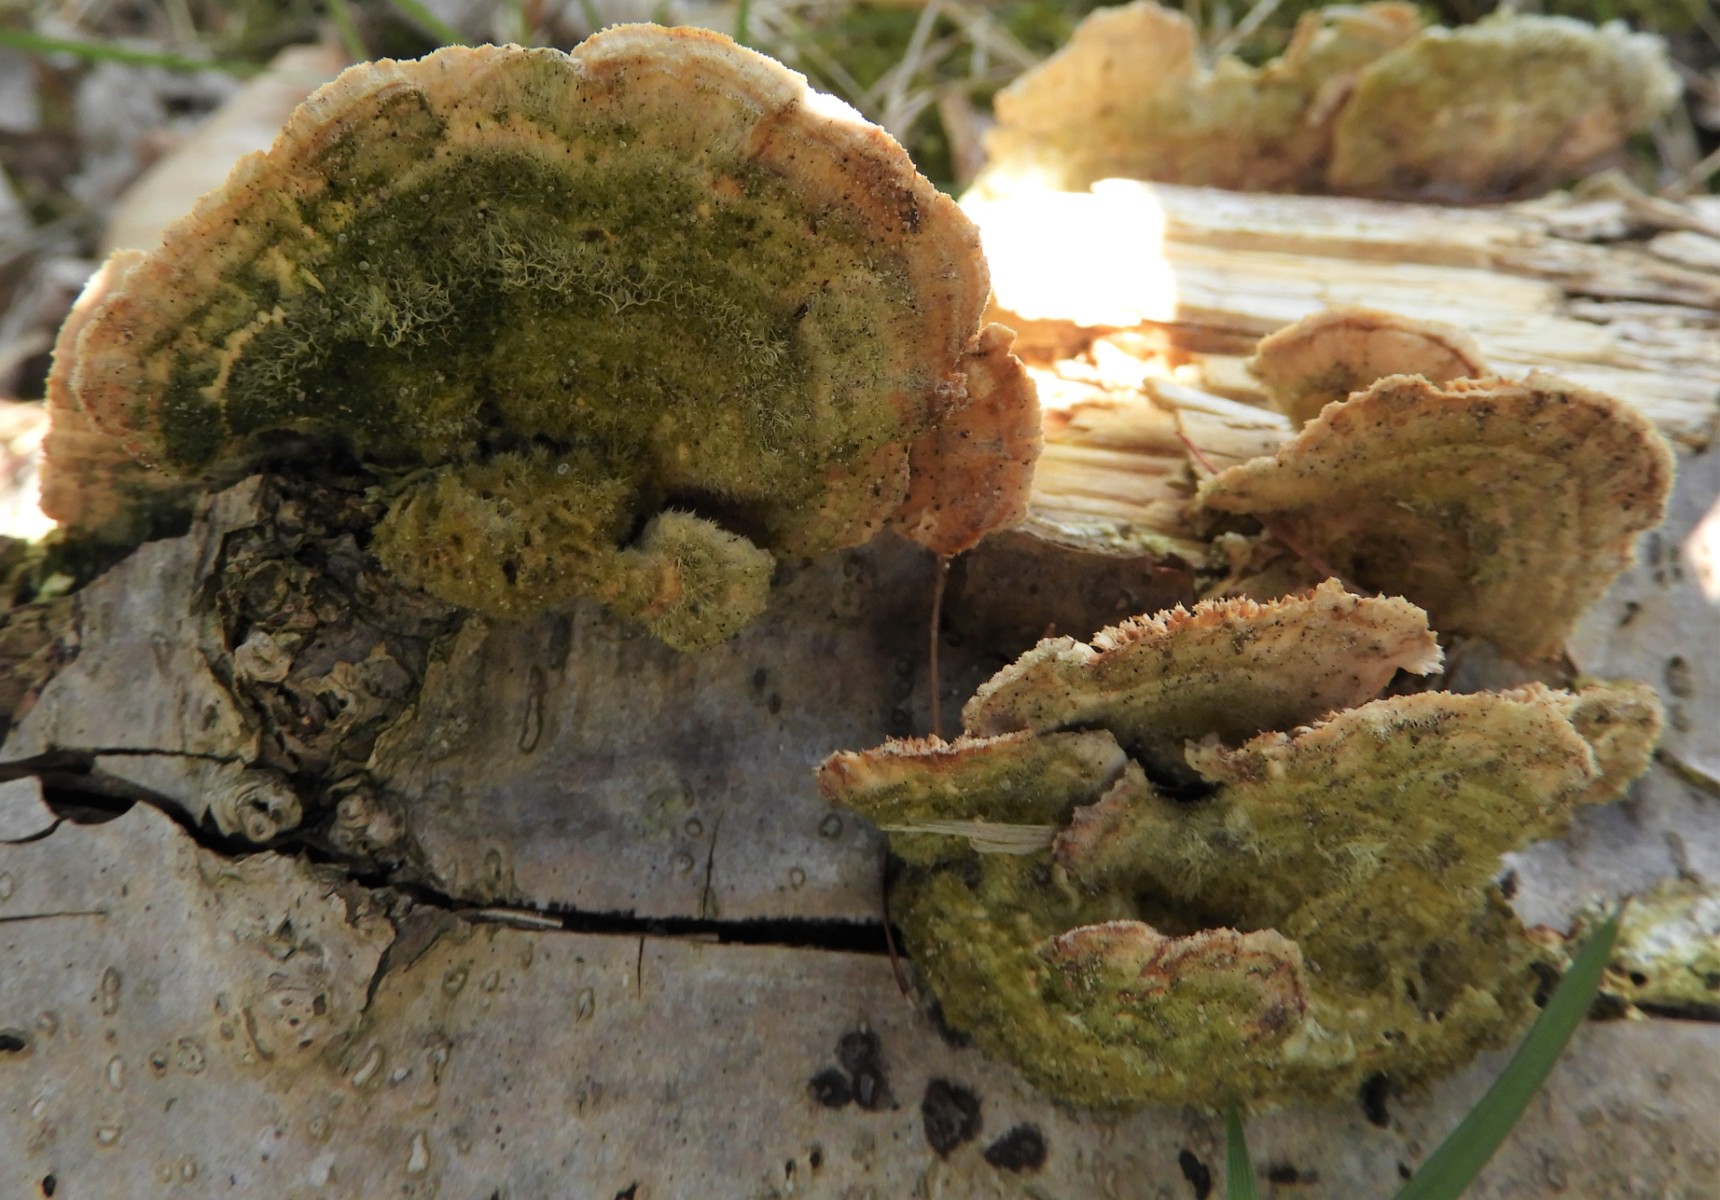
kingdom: Fungi
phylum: Basidiomycota
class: Agaricomycetes
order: Polyporales
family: Polyporaceae
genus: Lenzites
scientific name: Lenzites betulinus
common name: birke-læderporesvamp
